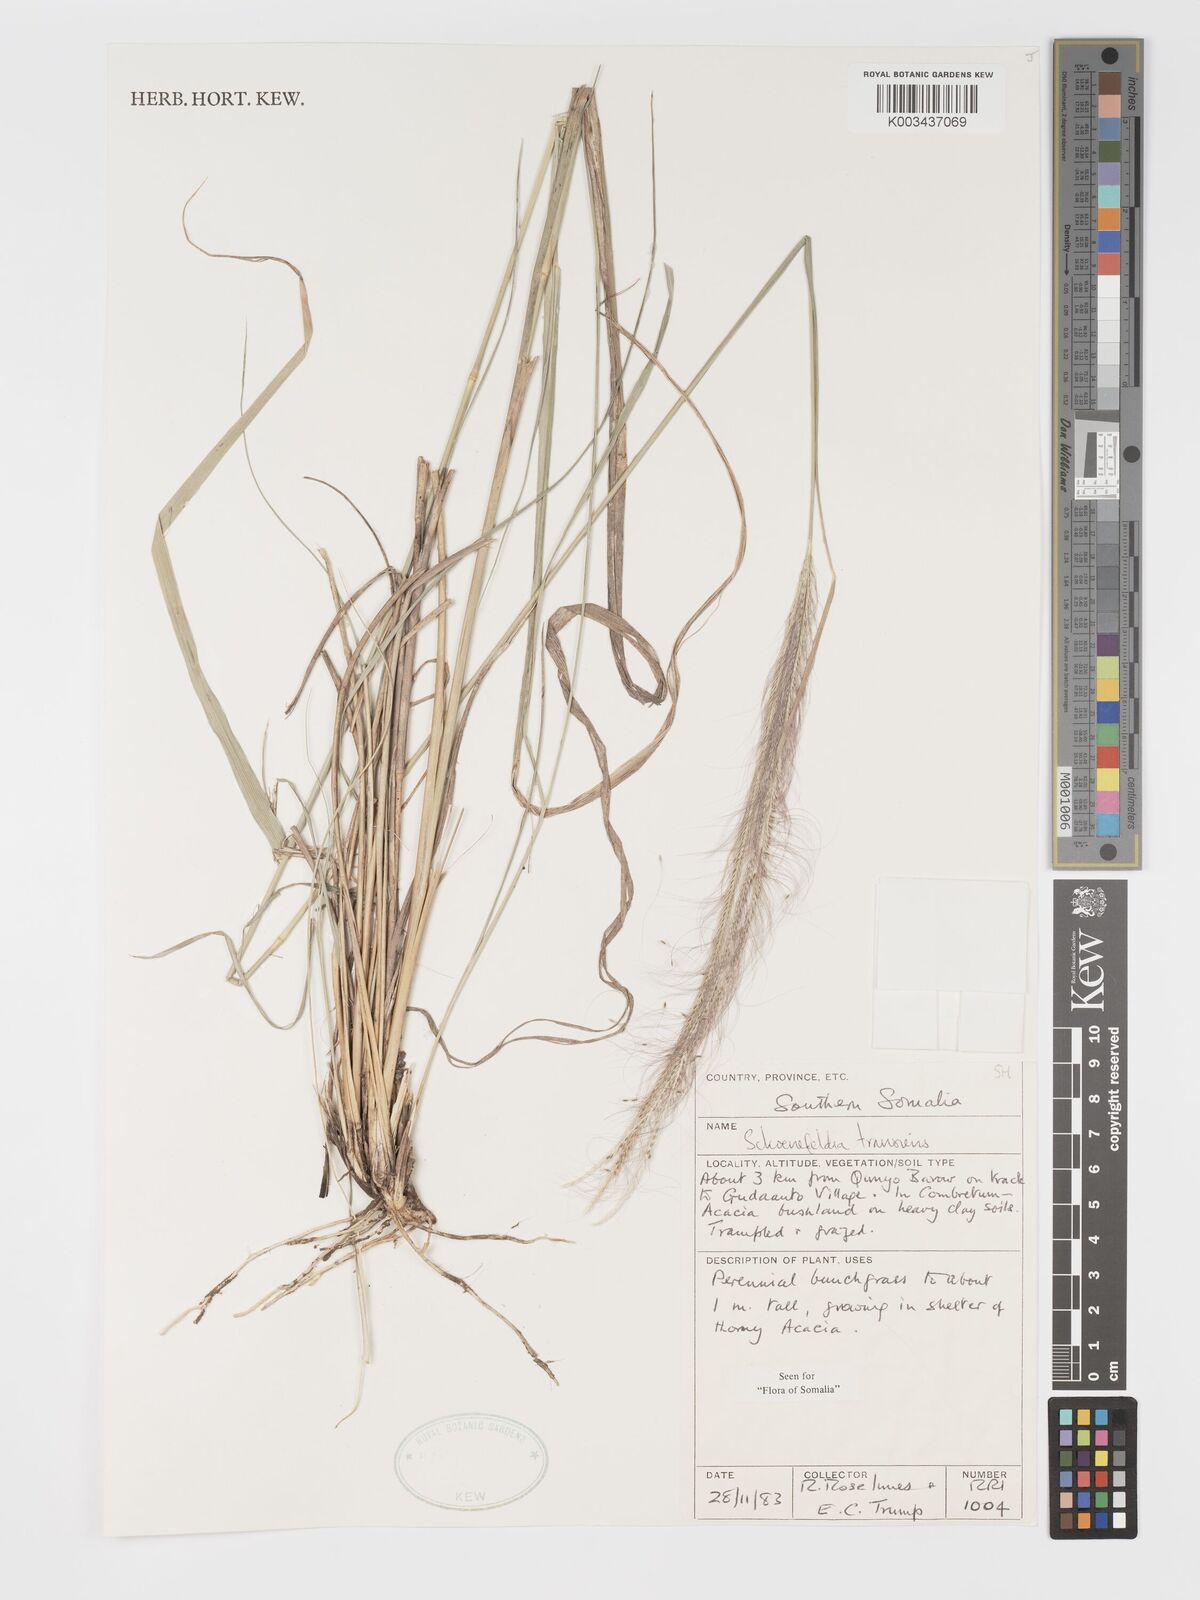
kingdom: Plantae
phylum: Tracheophyta
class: Liliopsida
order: Poales
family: Poaceae
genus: Schoenefeldia
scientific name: Schoenefeldia transiens
